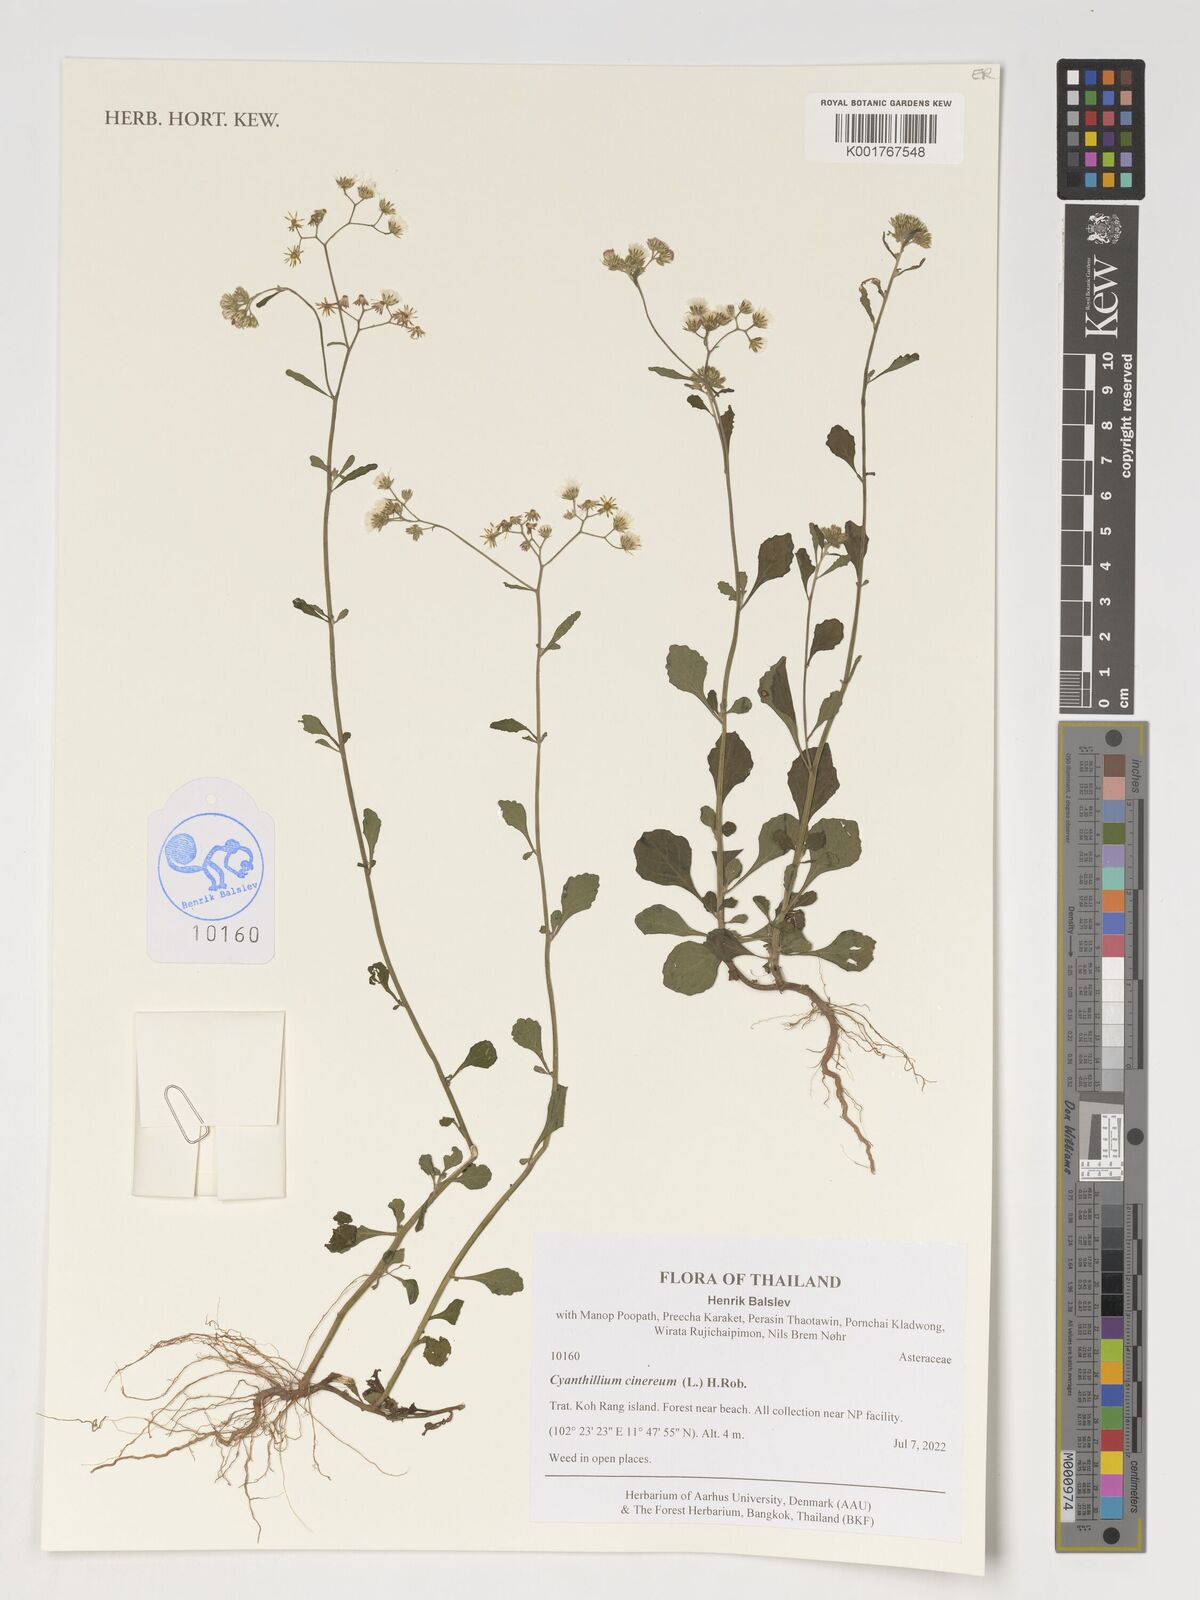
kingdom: Plantae
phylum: Tracheophyta
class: Magnoliopsida
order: Asterales
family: Asteraceae
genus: Cyanthillium
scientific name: Cyanthillium cinereum
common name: Little ironweed
